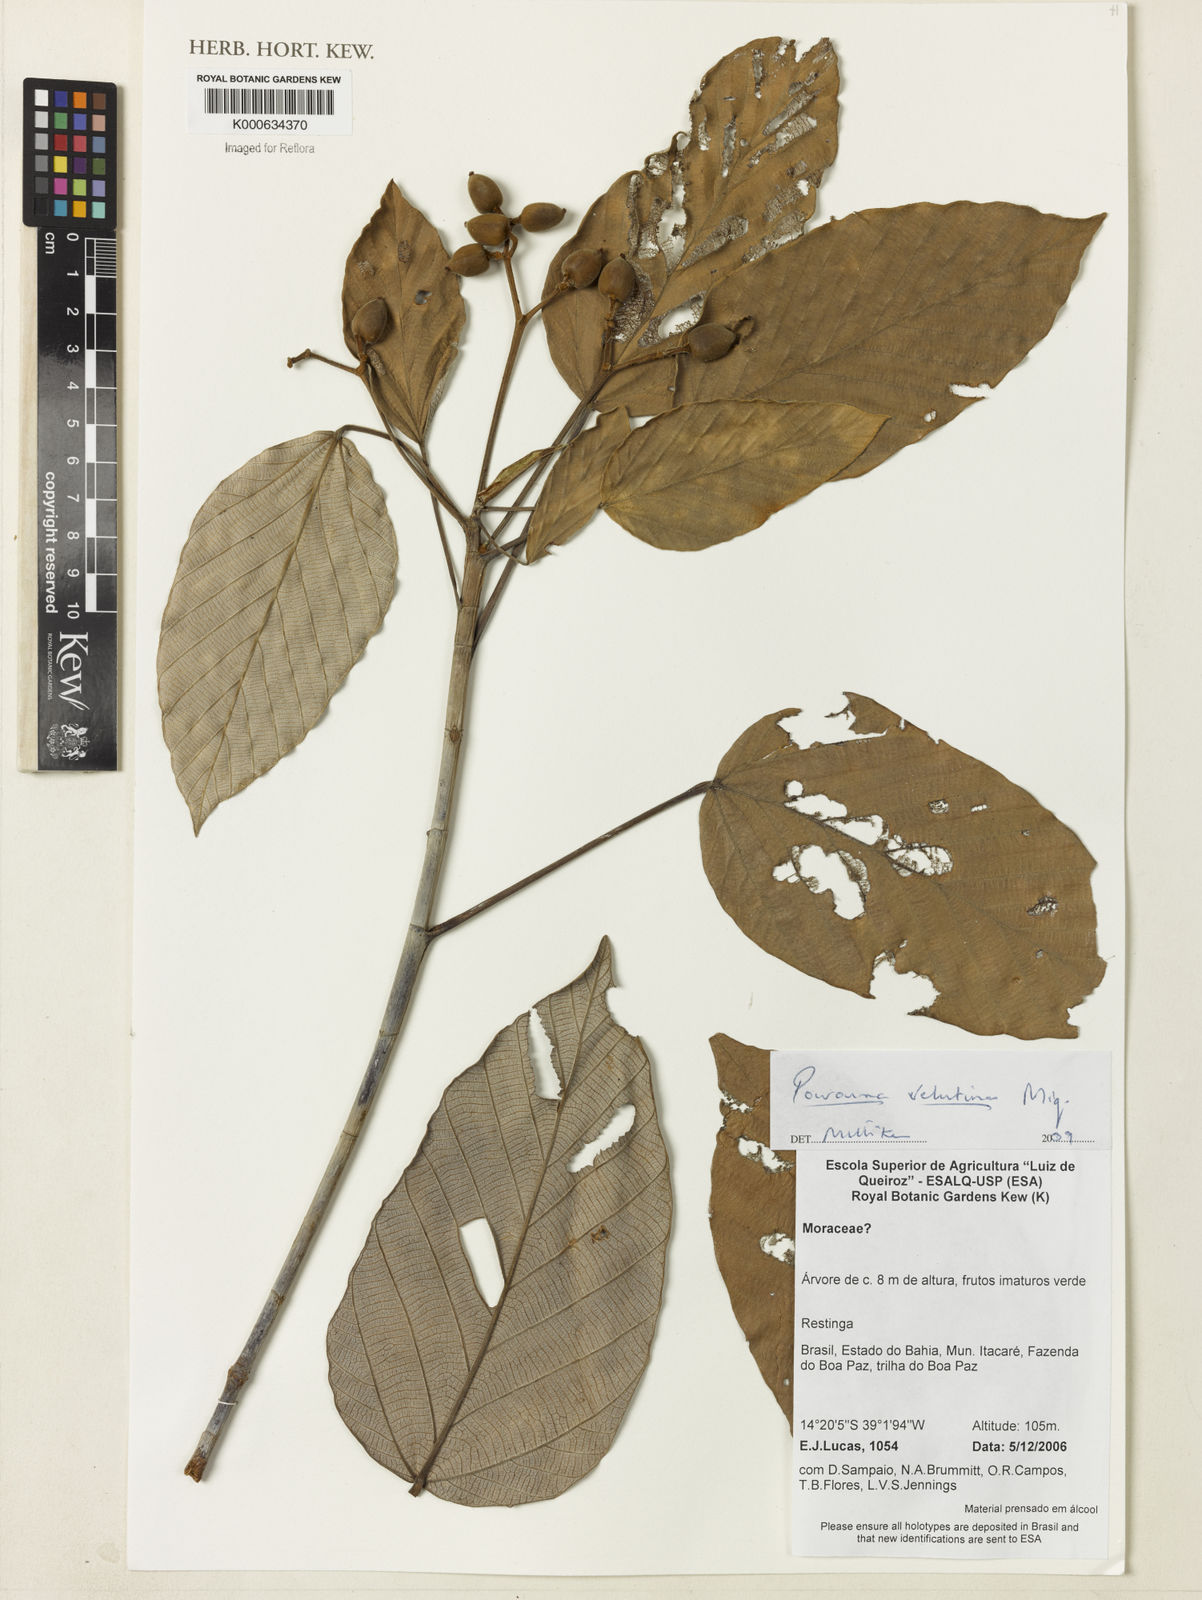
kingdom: Plantae
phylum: Tracheophyta
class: Magnoliopsida
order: Rosales
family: Urticaceae
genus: Pourouma
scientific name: Pourouma velutina
